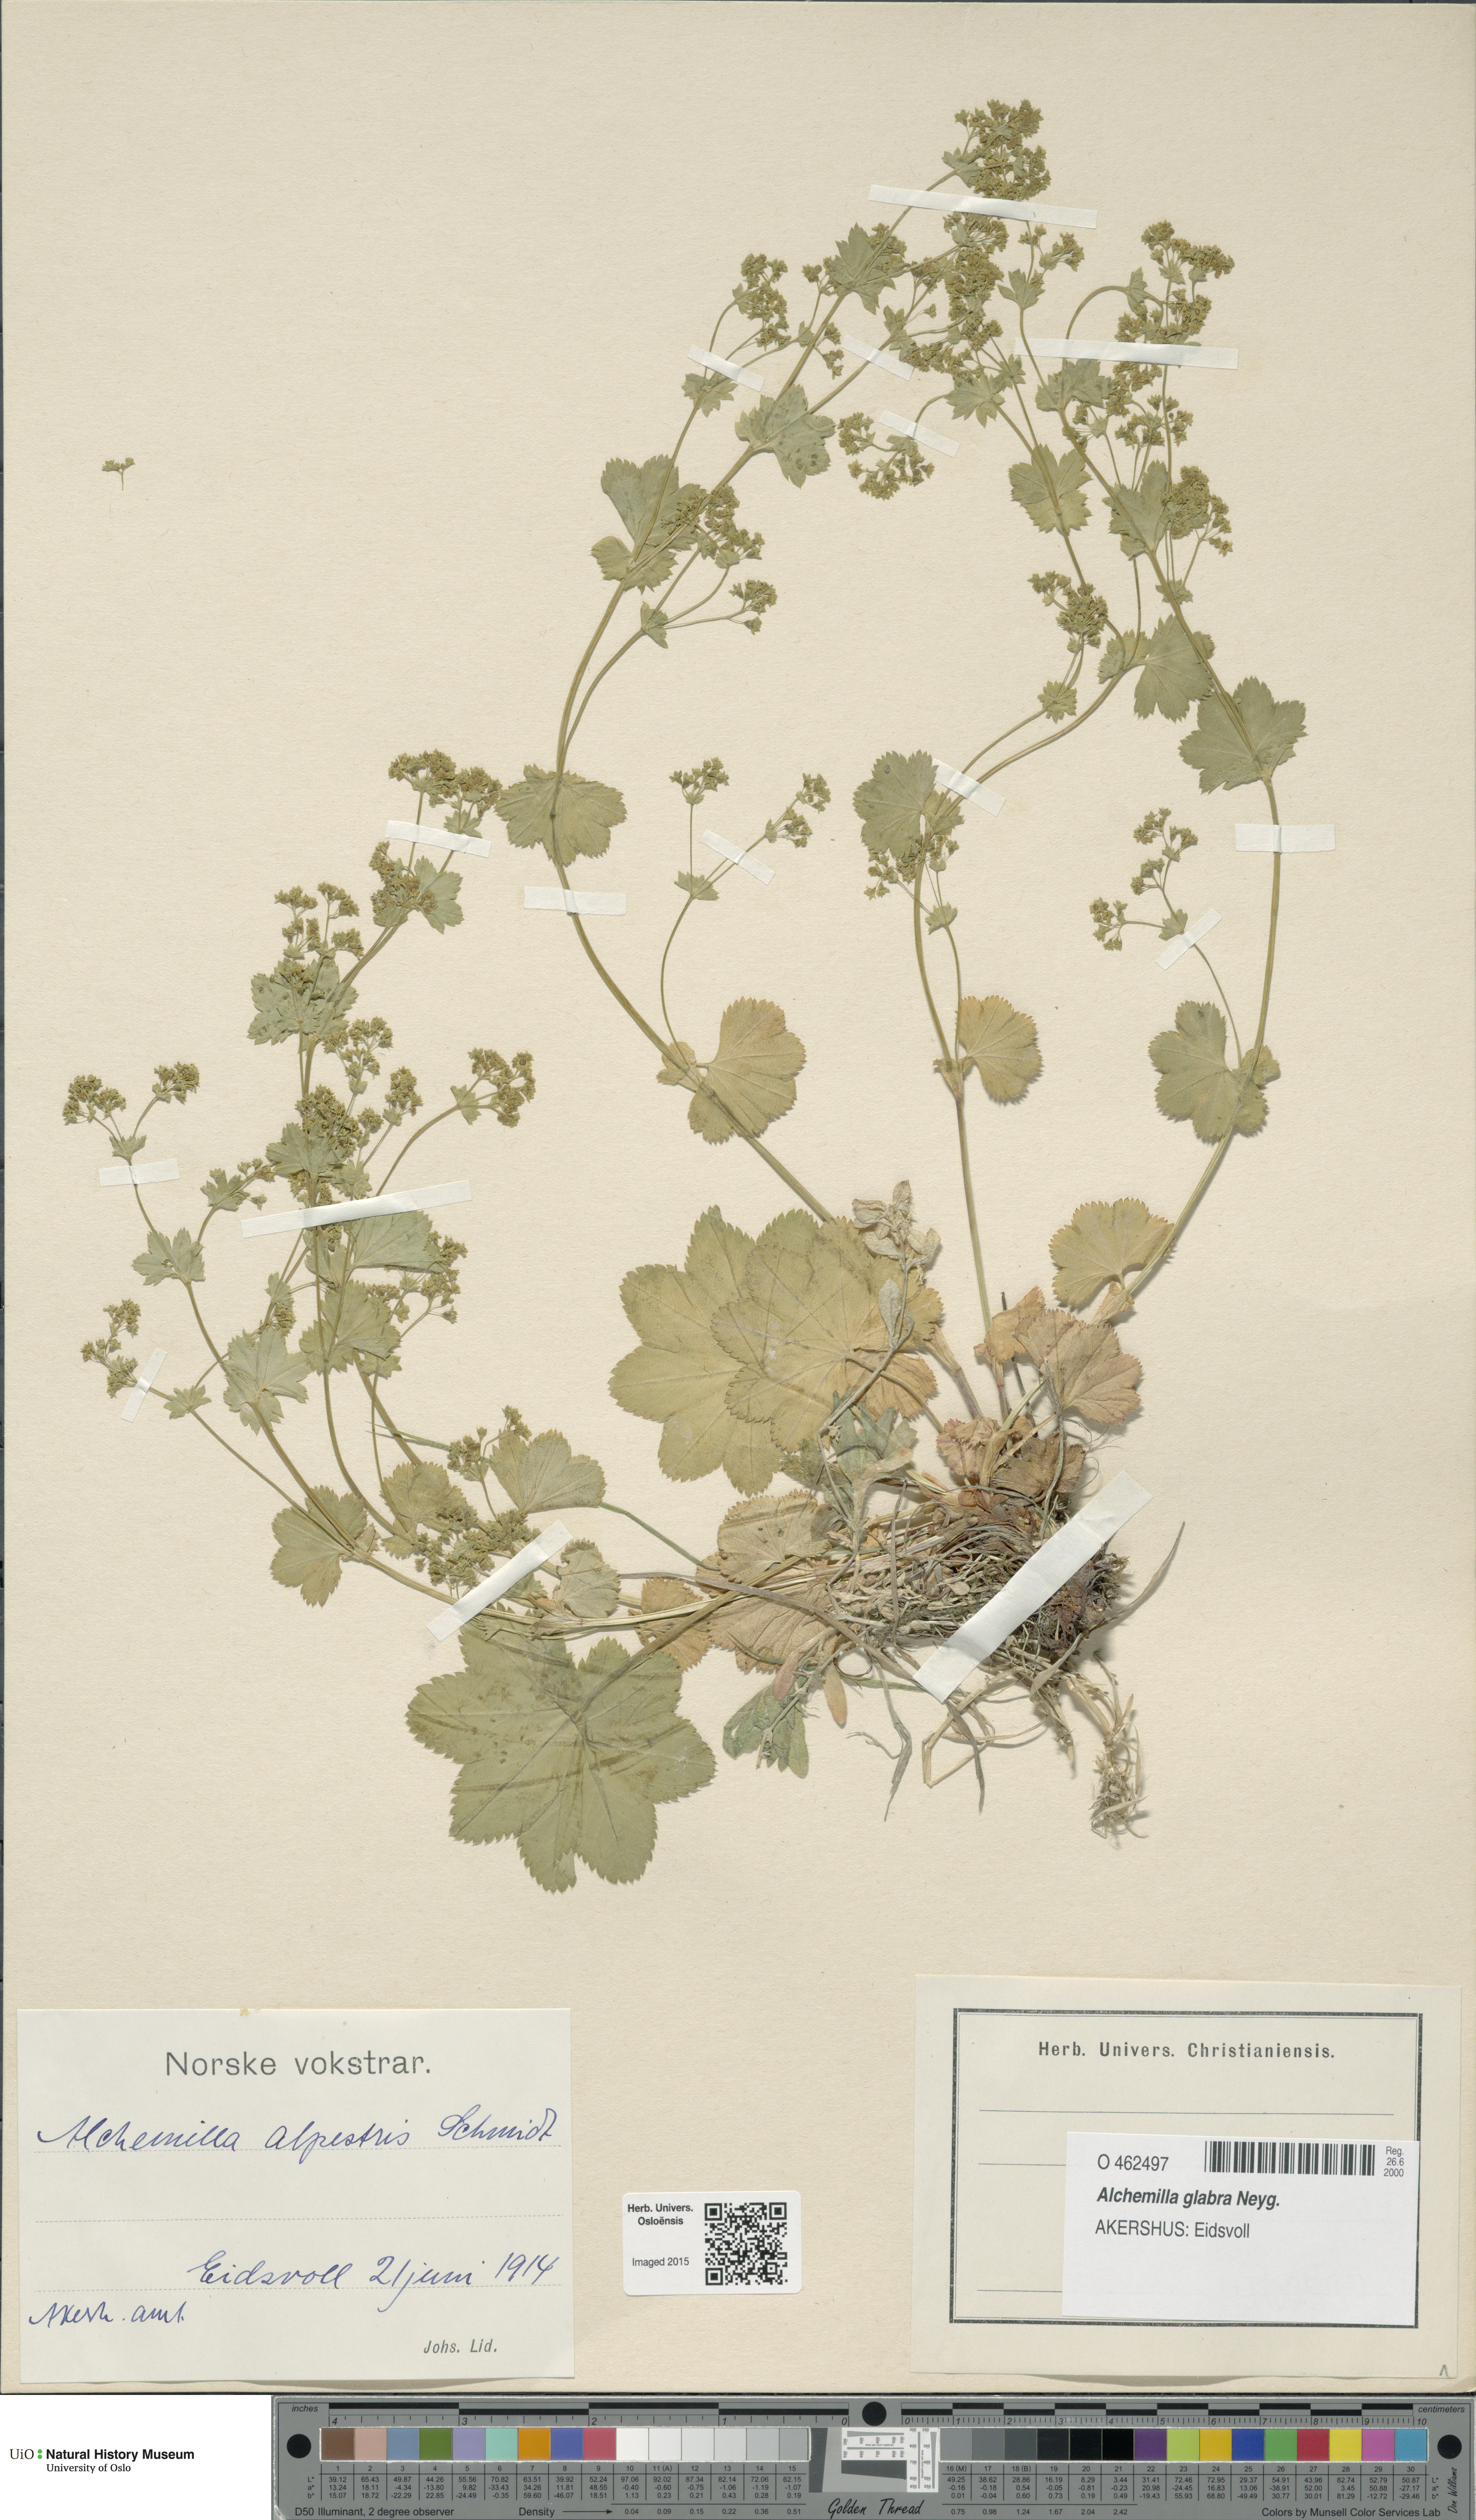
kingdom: Plantae
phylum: Tracheophyta
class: Magnoliopsida
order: Rosales
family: Rosaceae
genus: Alchemilla
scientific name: Alchemilla glabra
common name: Smooth lady's-mantle
